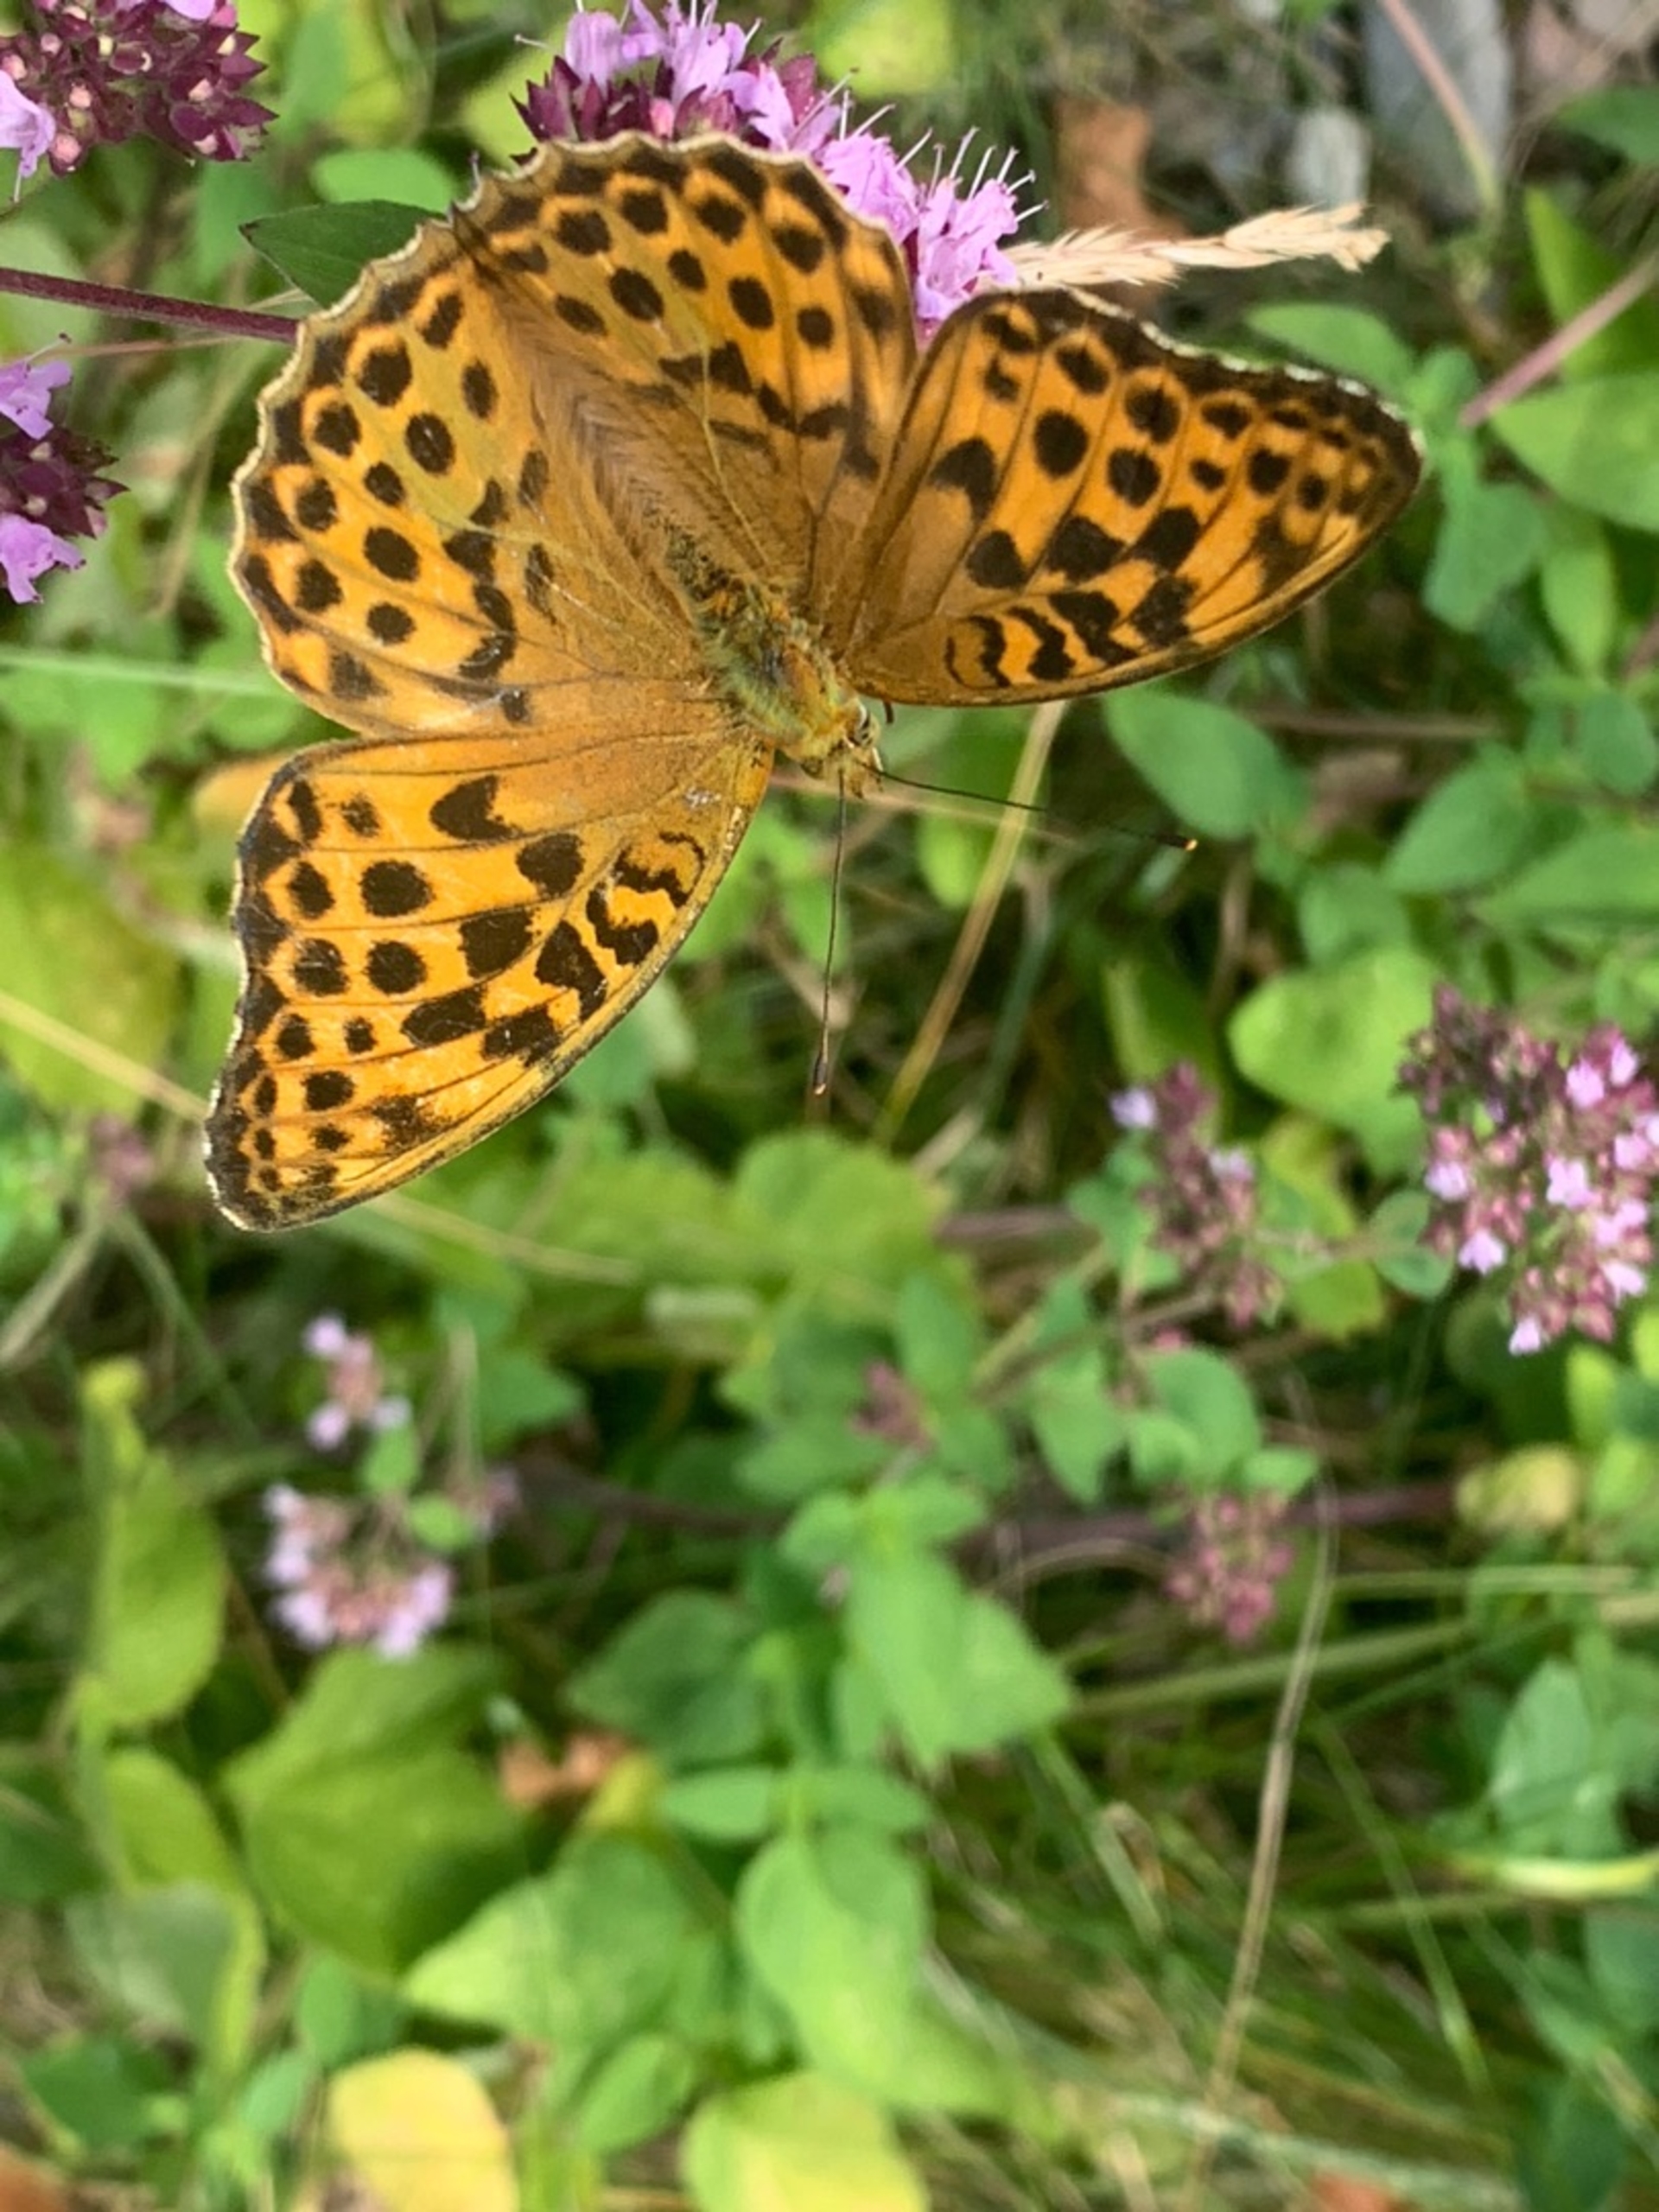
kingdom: Animalia
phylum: Arthropoda
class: Insecta
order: Lepidoptera
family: Nymphalidae
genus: Argynnis
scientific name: Argynnis paphia
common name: Kejserkåbe
